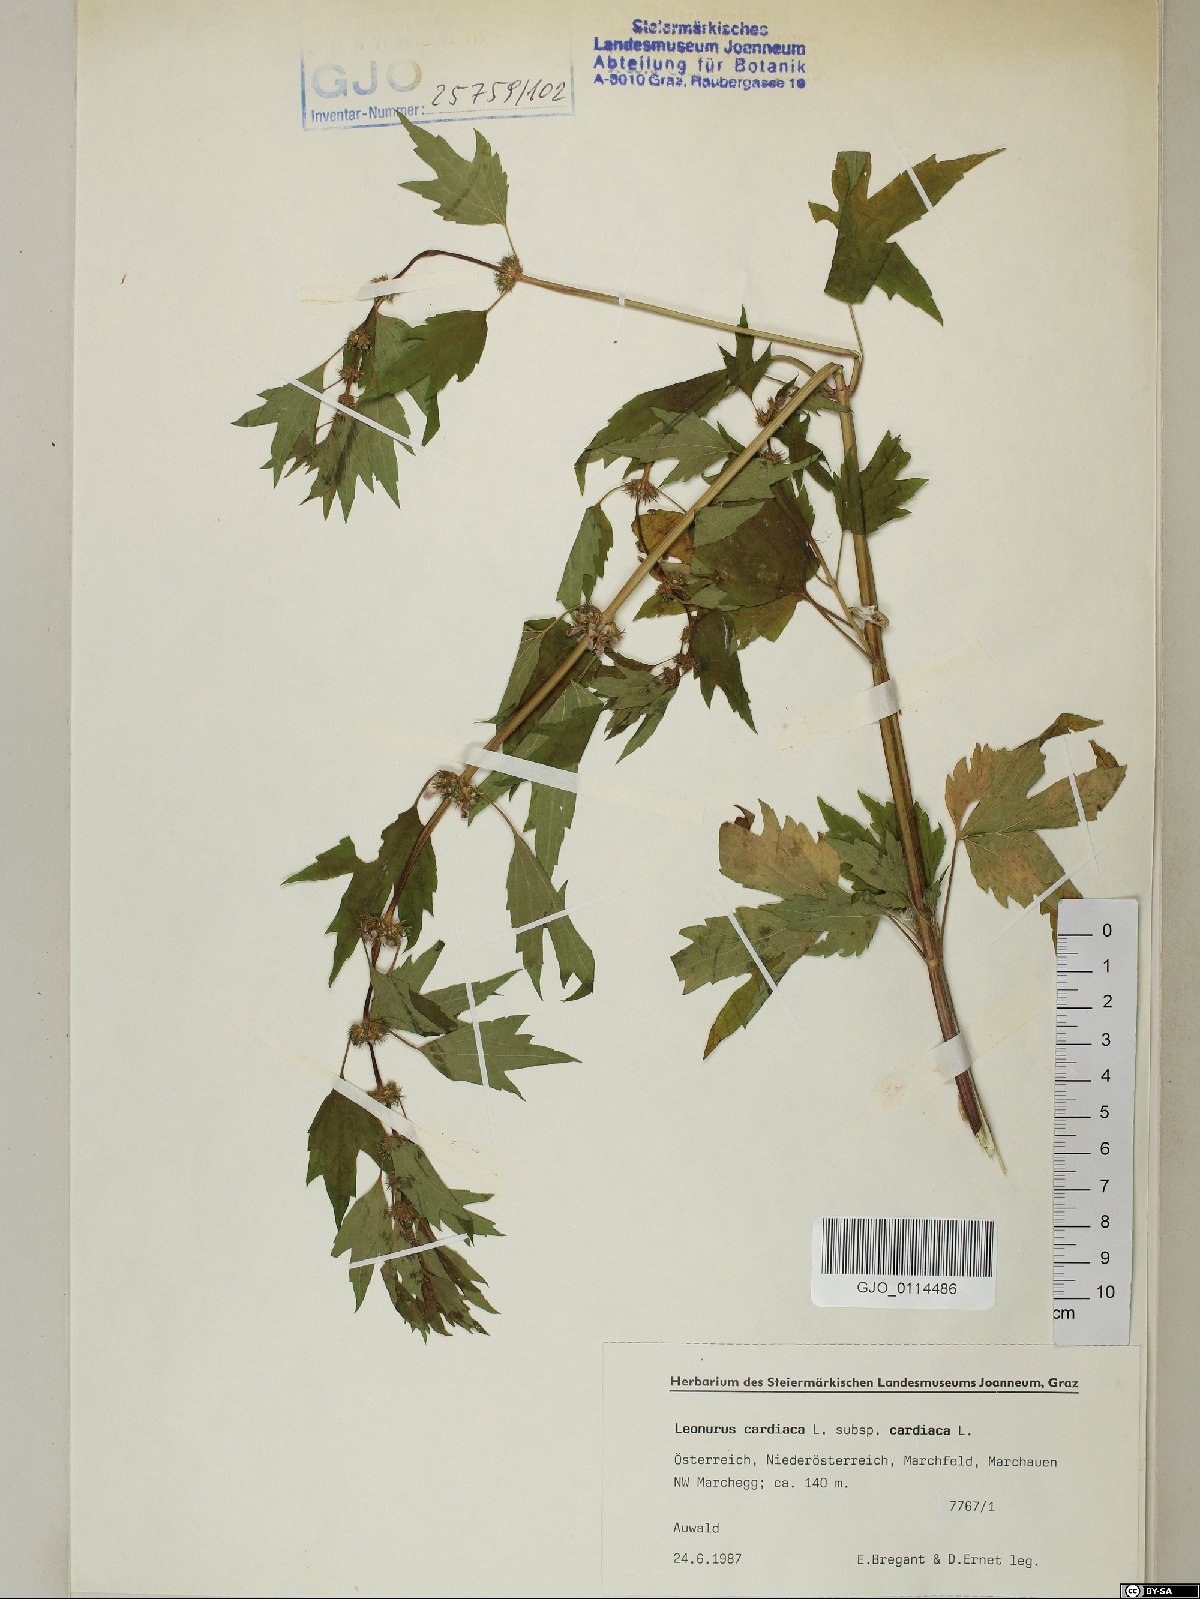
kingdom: Plantae
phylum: Tracheophyta
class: Magnoliopsida
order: Lamiales
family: Lamiaceae
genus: Leonurus
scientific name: Leonurus cardiaca
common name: Motherwort
